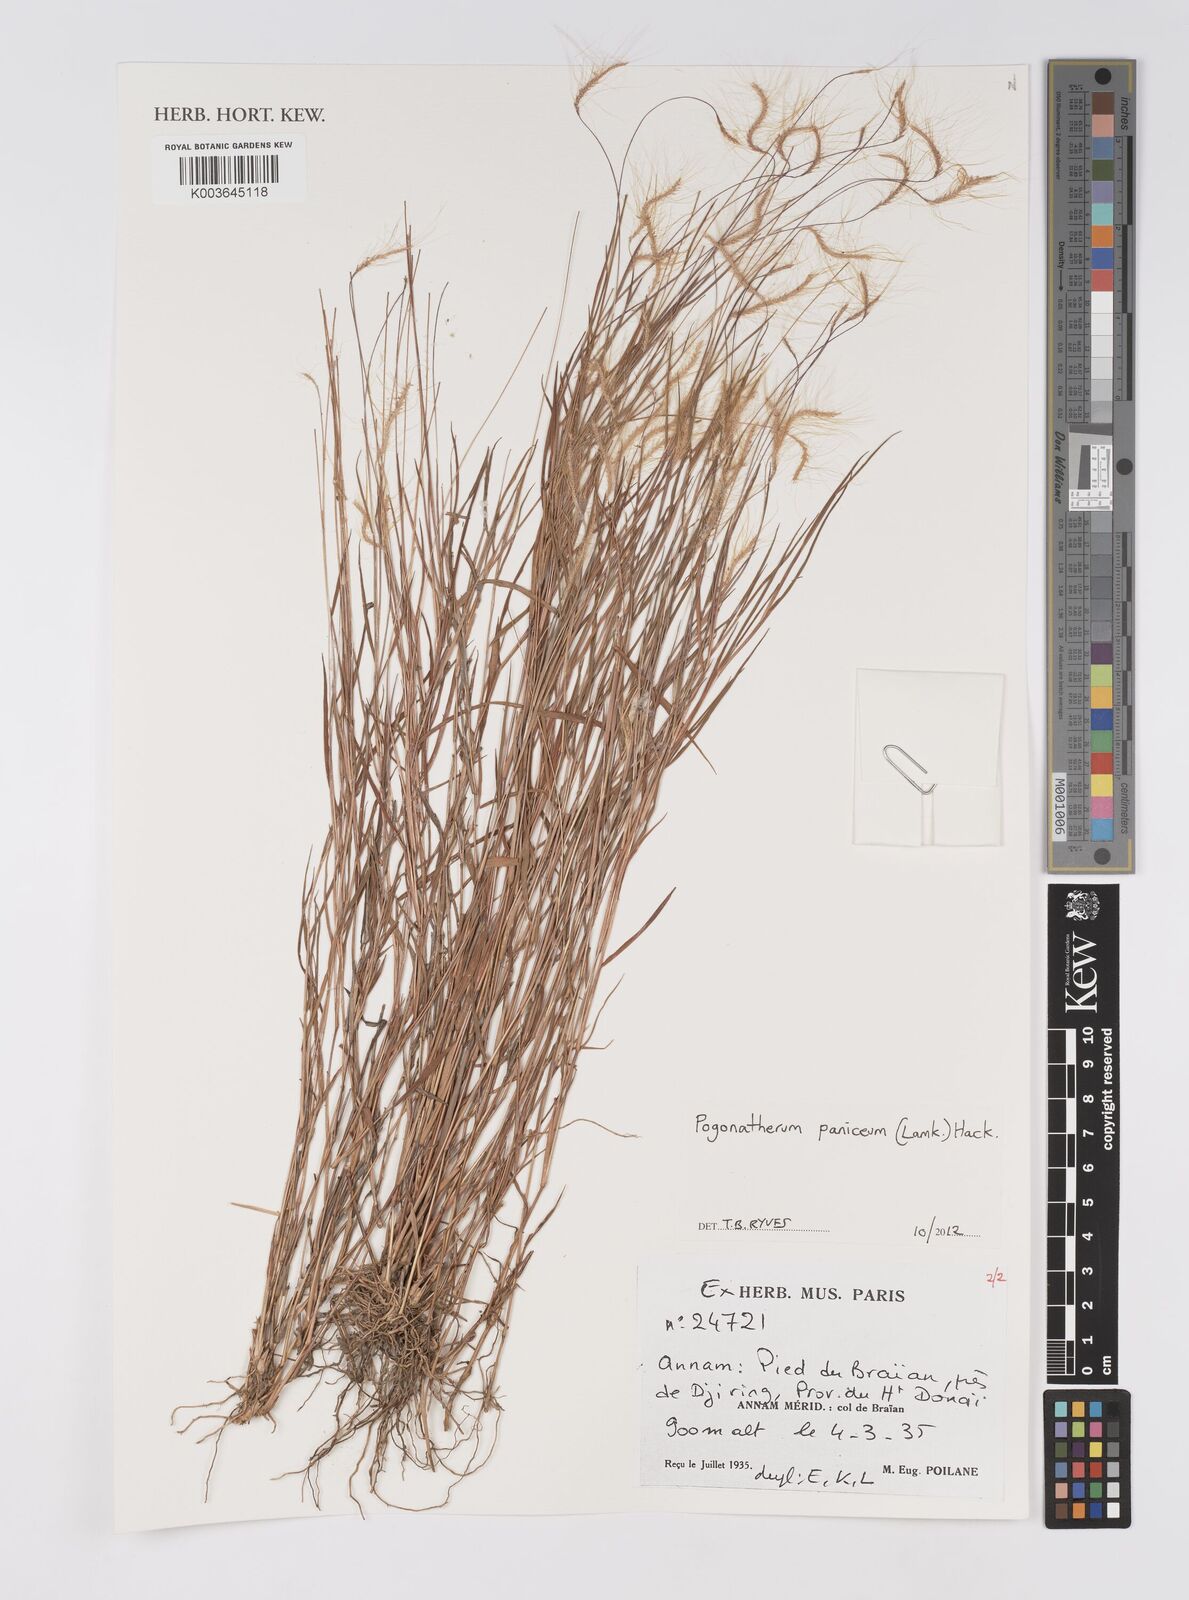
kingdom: Plantae
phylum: Tracheophyta
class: Liliopsida
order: Poales
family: Poaceae
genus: Pogonatherum
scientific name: Pogonatherum paniceum
